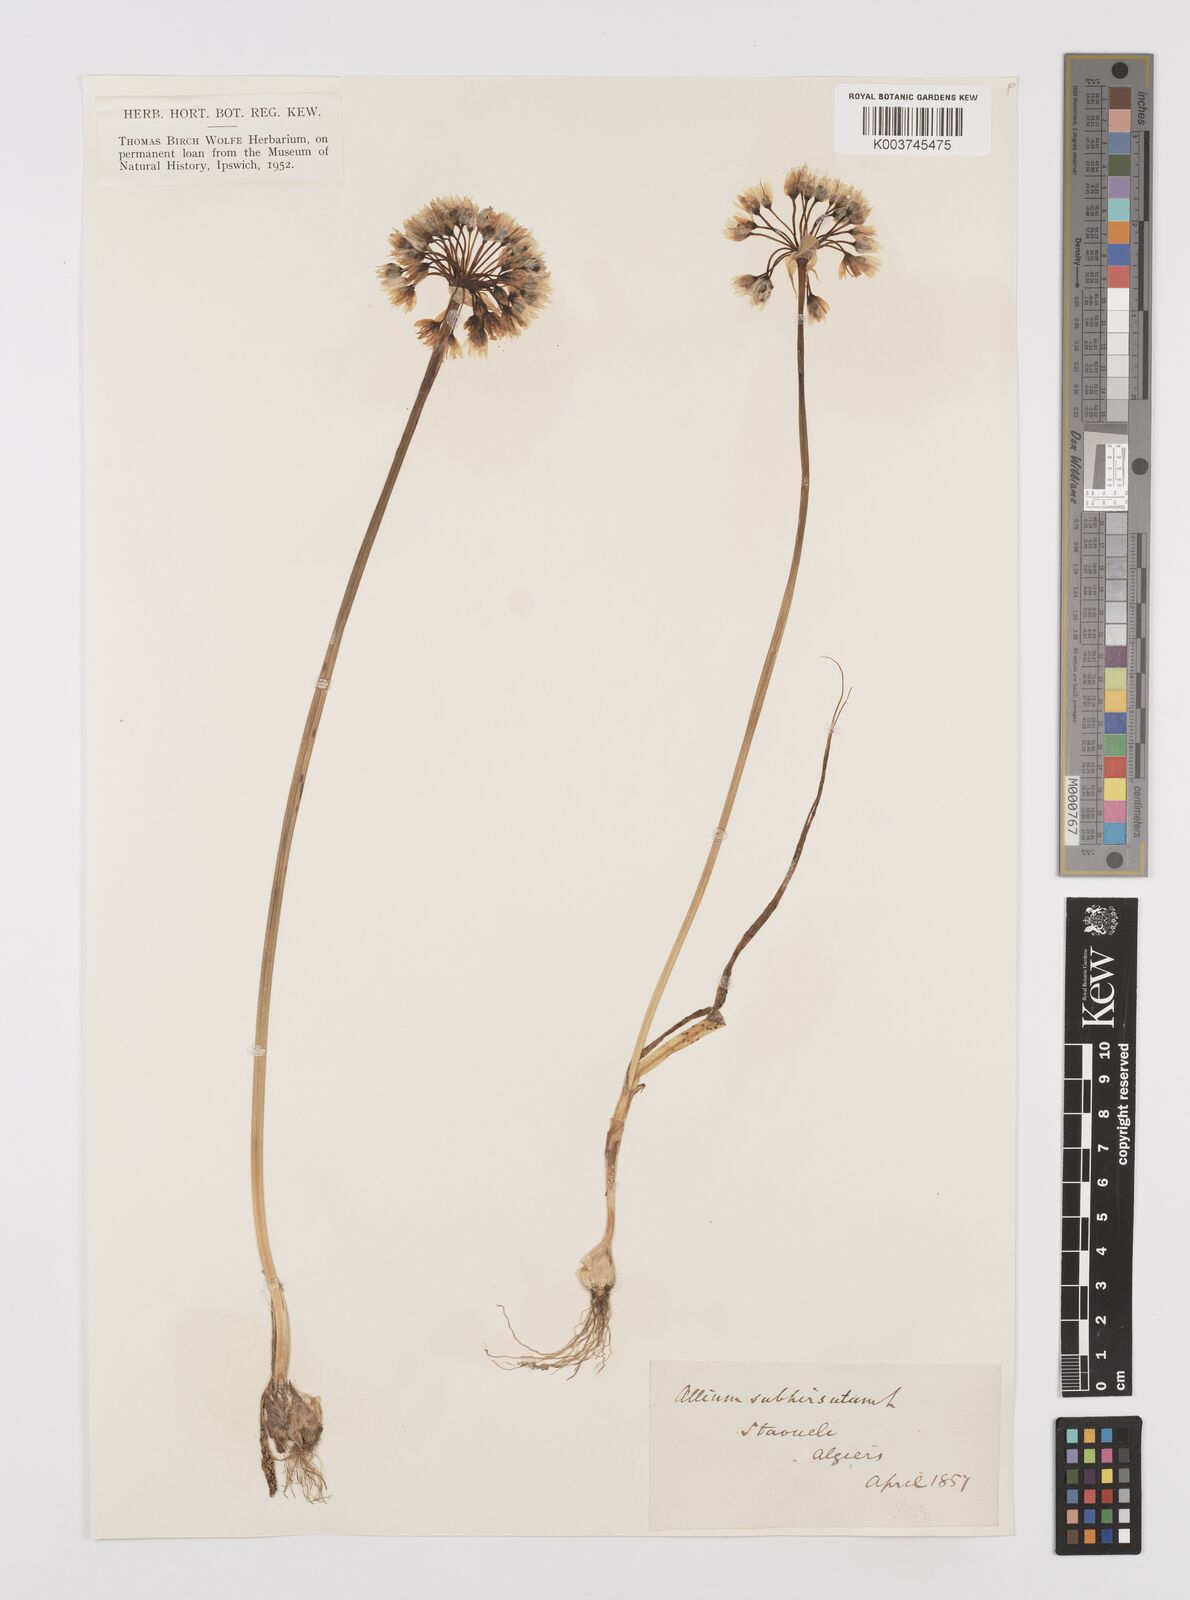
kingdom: Plantae
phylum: Tracheophyta
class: Liliopsida
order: Asparagales
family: Amaryllidaceae
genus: Allium
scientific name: Allium subhirsutum
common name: Hairy garlic
